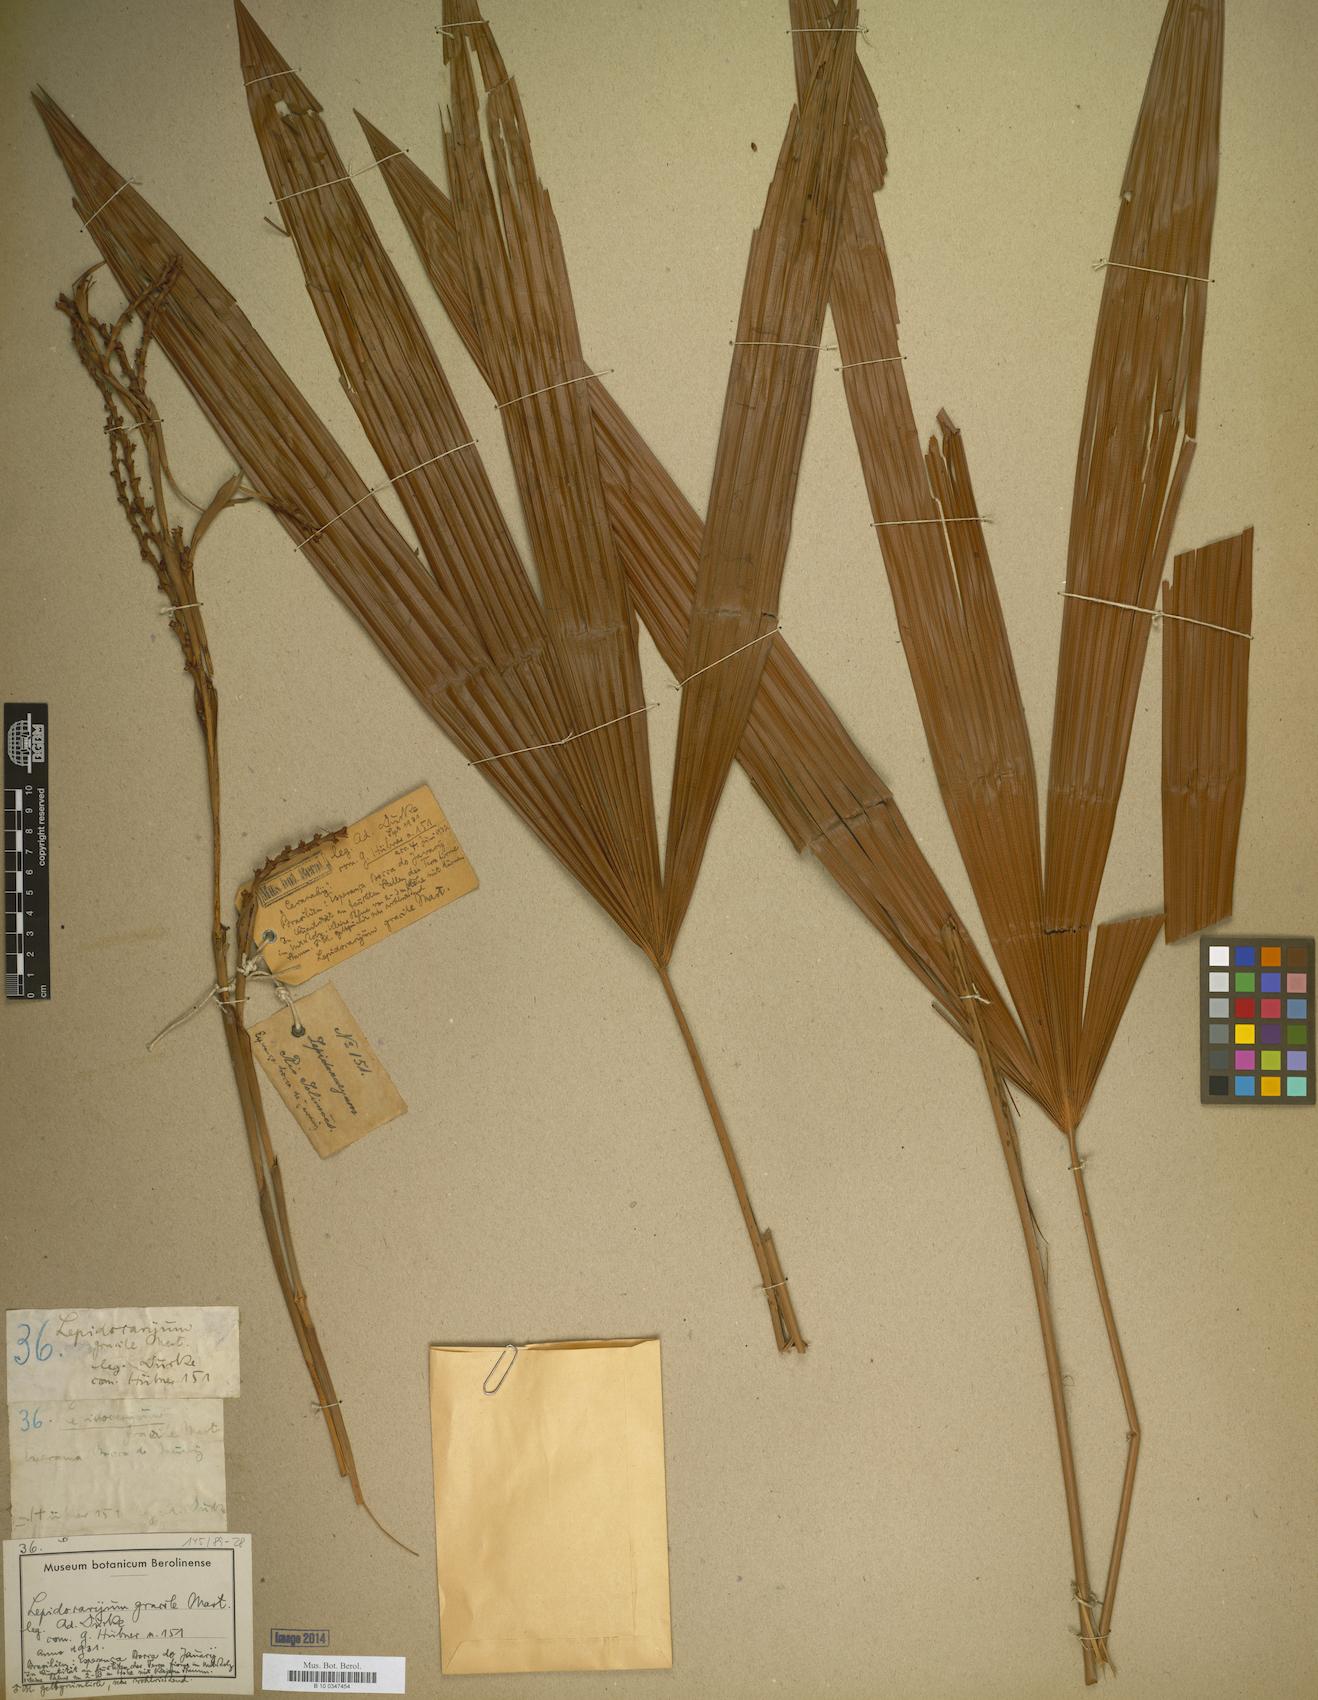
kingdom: Plantae
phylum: Tracheophyta
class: Liliopsida
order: Arecales
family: Arecaceae
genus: Lepidocaryum
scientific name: Lepidocaryum tenue
